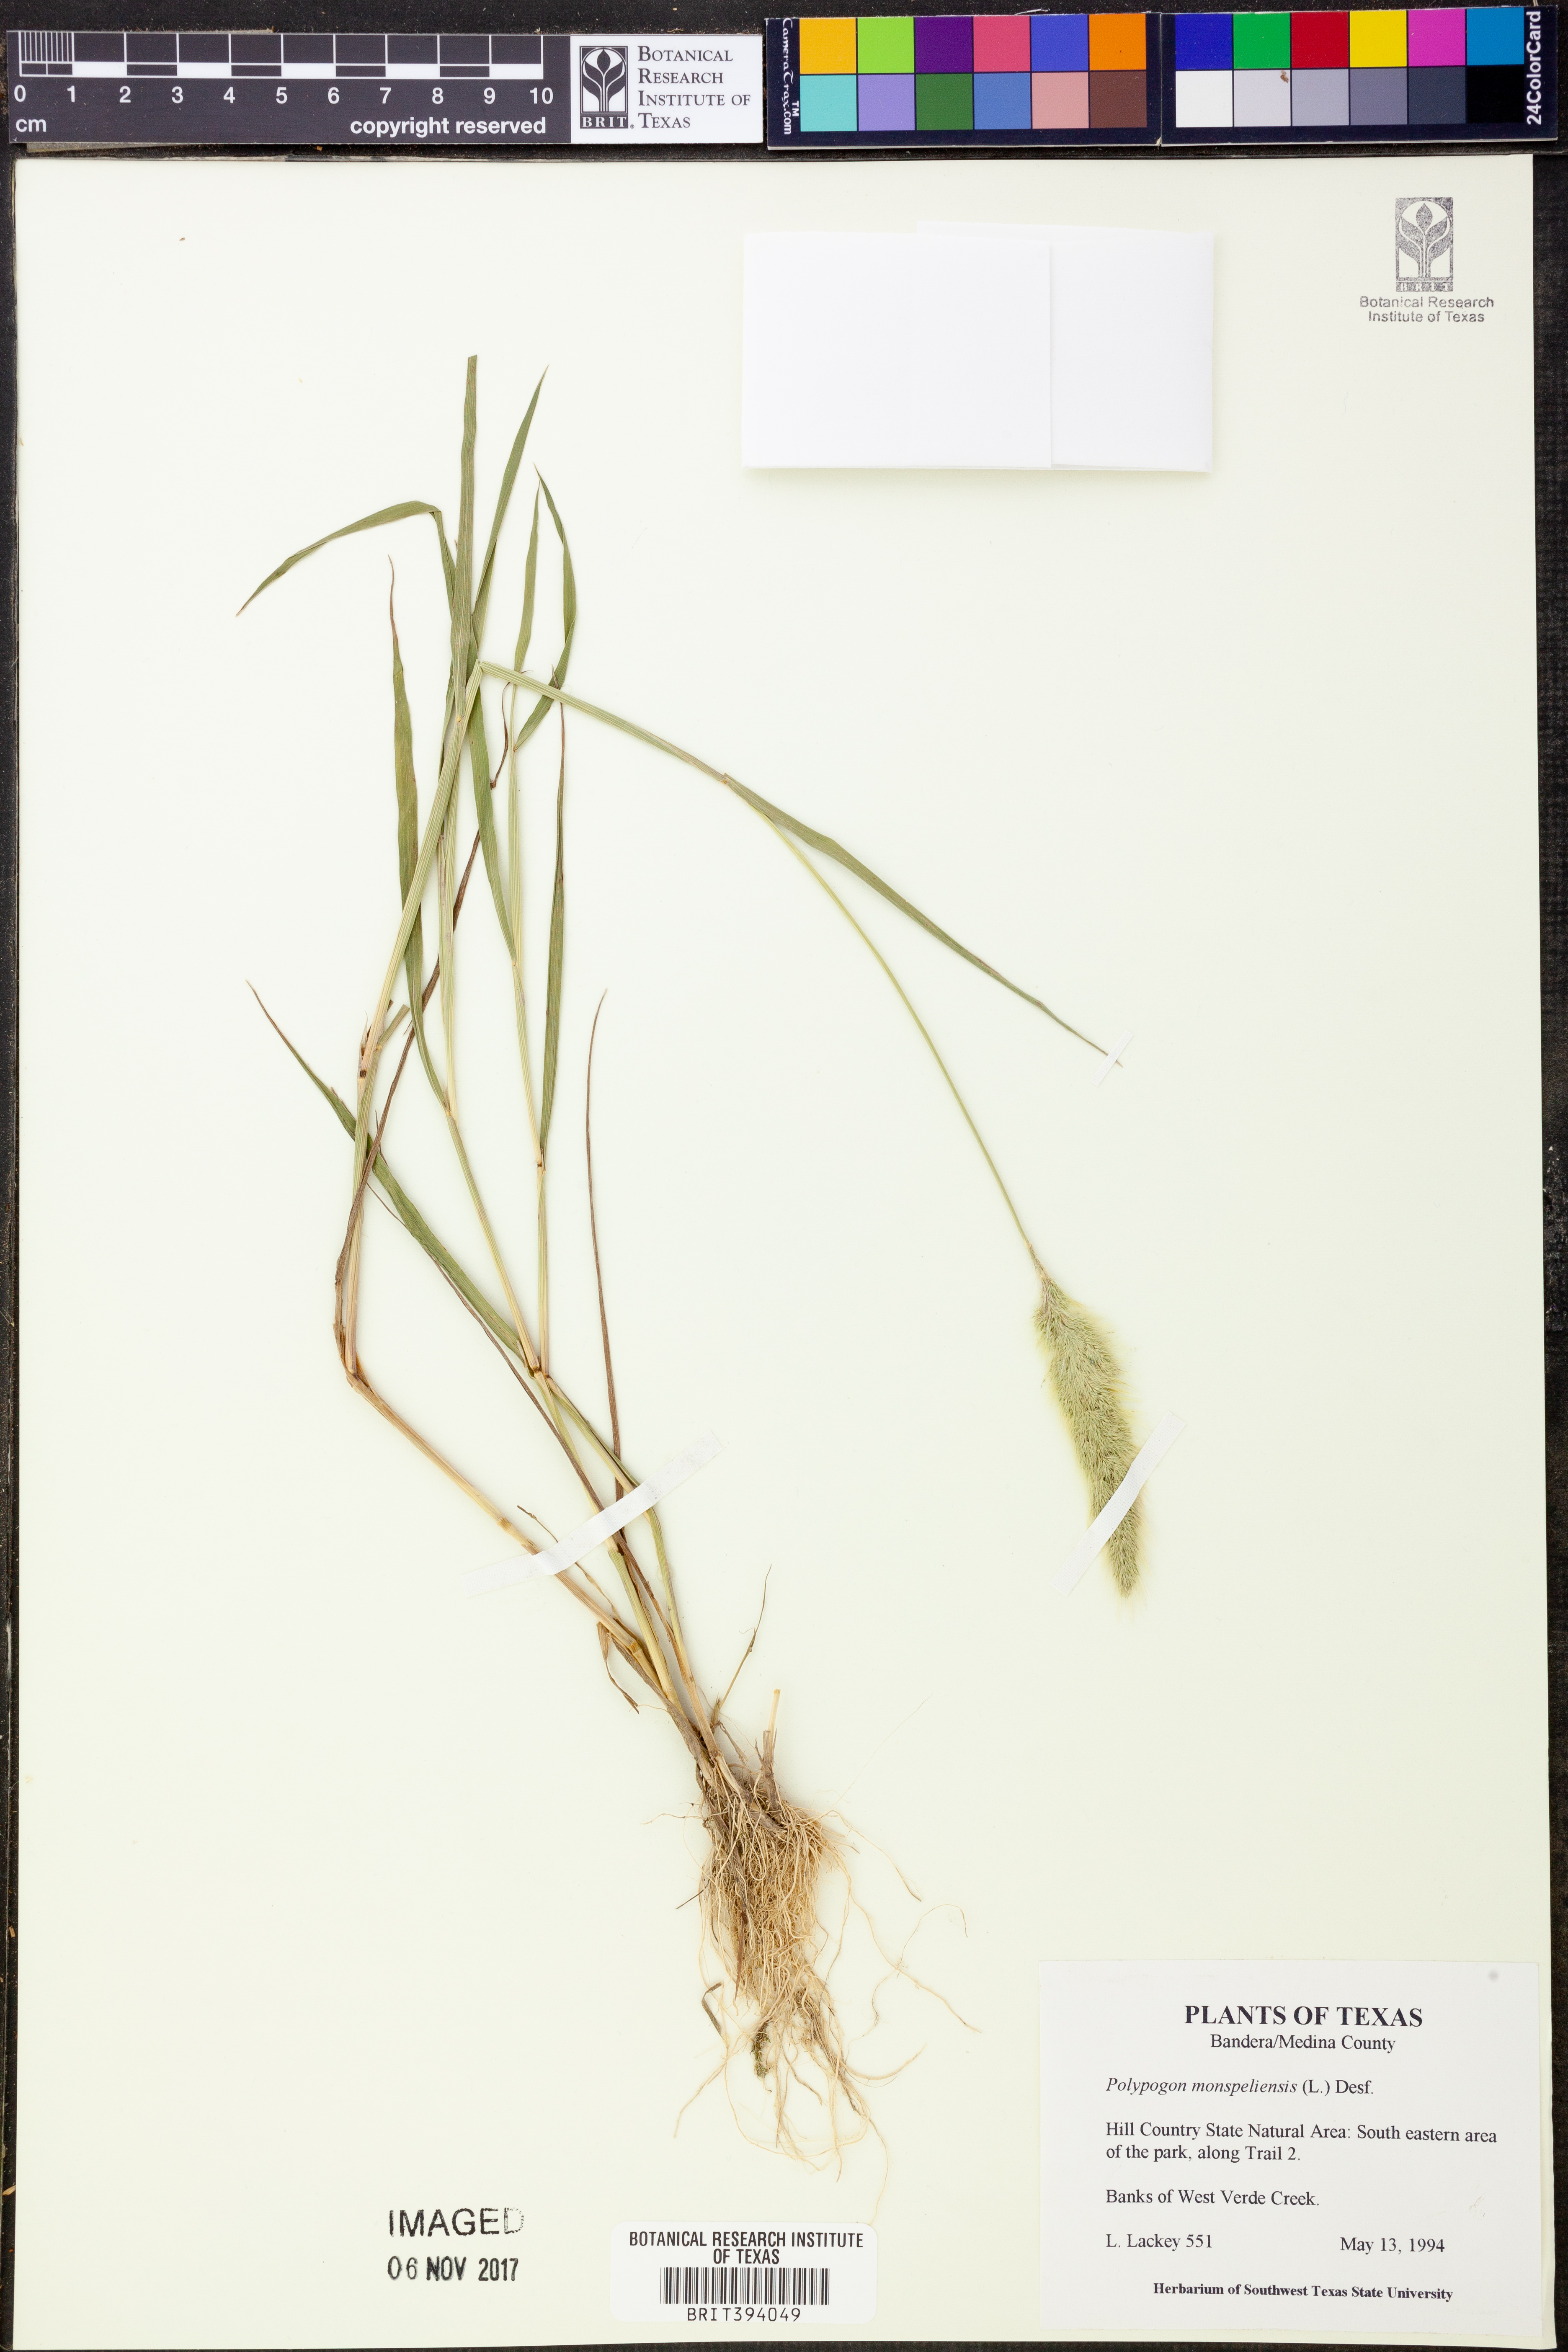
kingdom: Plantae
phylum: Tracheophyta
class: Liliopsida
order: Poales
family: Poaceae
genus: Polypogon
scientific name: Polypogon monspeliensis
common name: Annual rabbitsfoot grass
